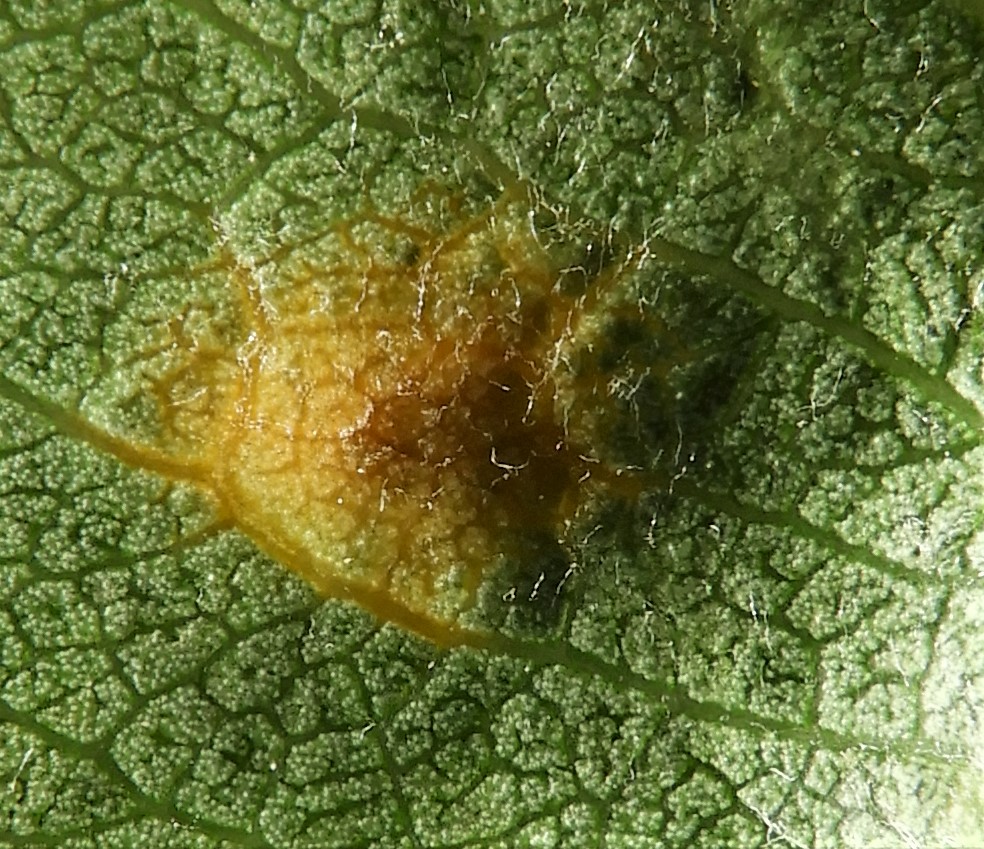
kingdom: Fungi
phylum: Basidiomycota
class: Pucciniomycetes
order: Pucciniales
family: Gymnosporangiaceae
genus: Gymnosporangium
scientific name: Gymnosporangium sabinae
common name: pæregitter-bævrerust
